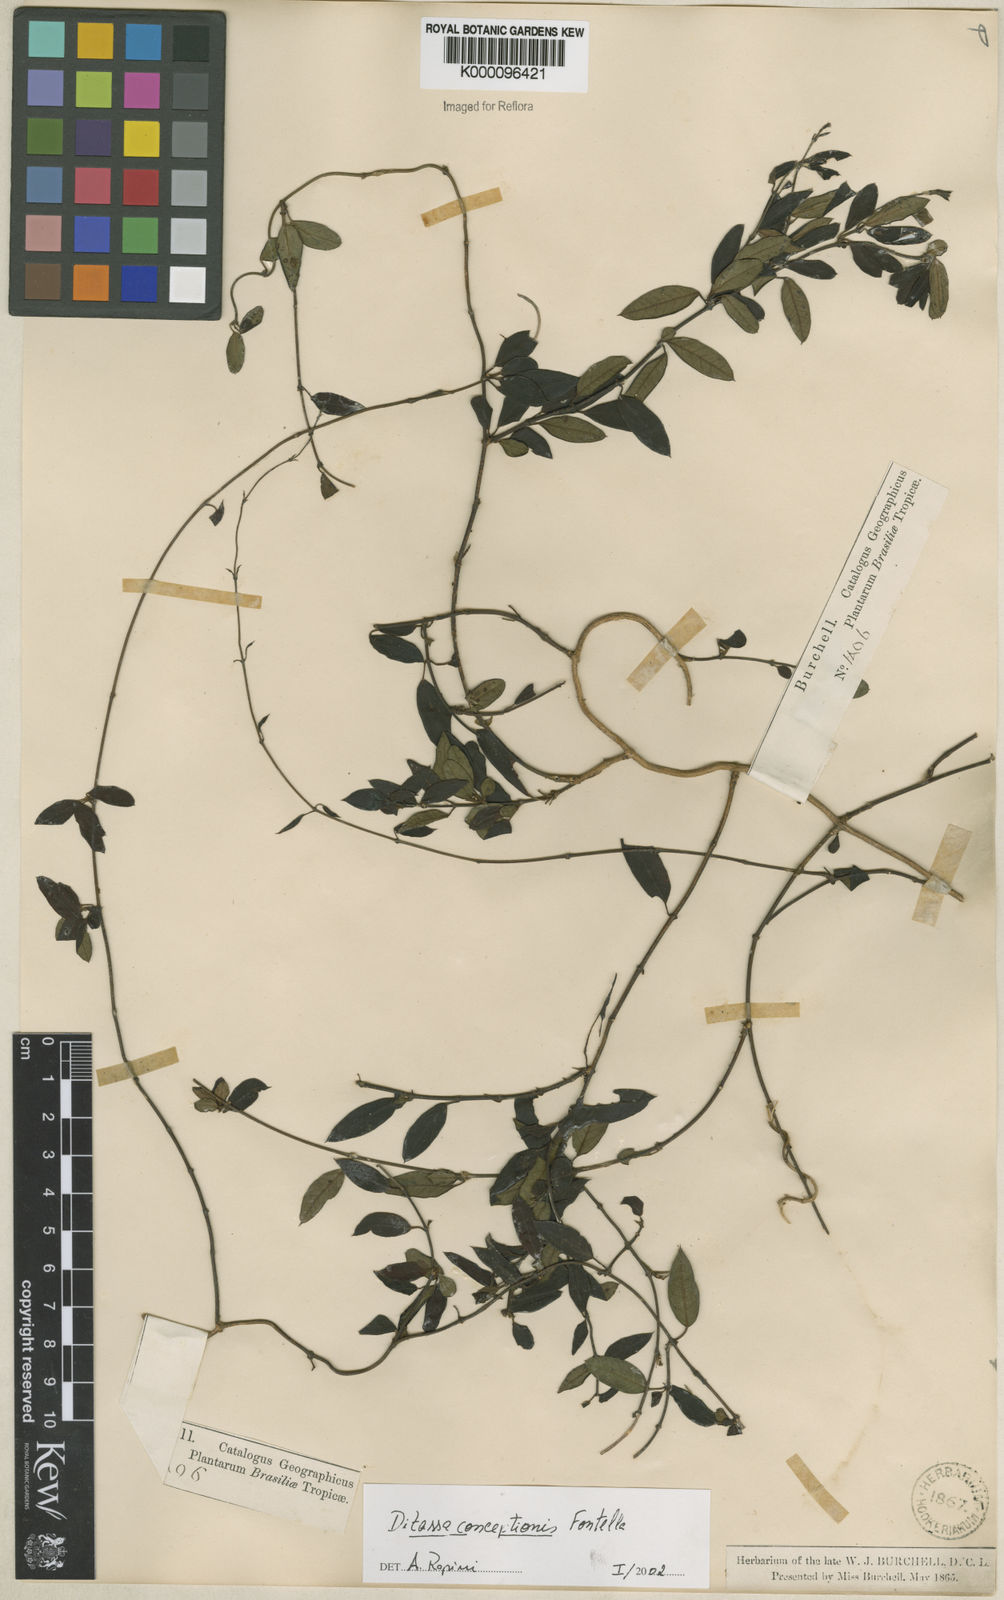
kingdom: Plantae
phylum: Tracheophyta
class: Magnoliopsida
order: Gentianales
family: Apocynaceae
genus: Ditassa
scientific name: Ditassa conceptionis
